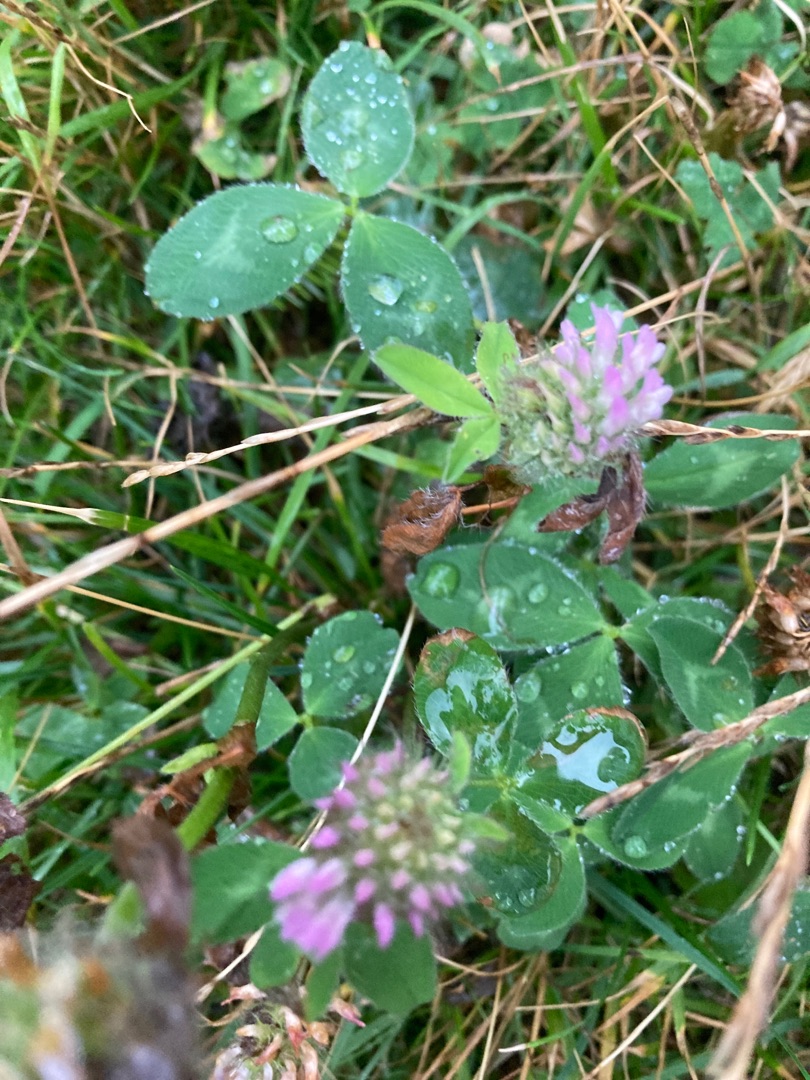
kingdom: Plantae
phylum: Tracheophyta
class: Magnoliopsida
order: Fabales
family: Fabaceae
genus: Trifolium
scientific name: Trifolium pratense
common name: Rød-kløver
